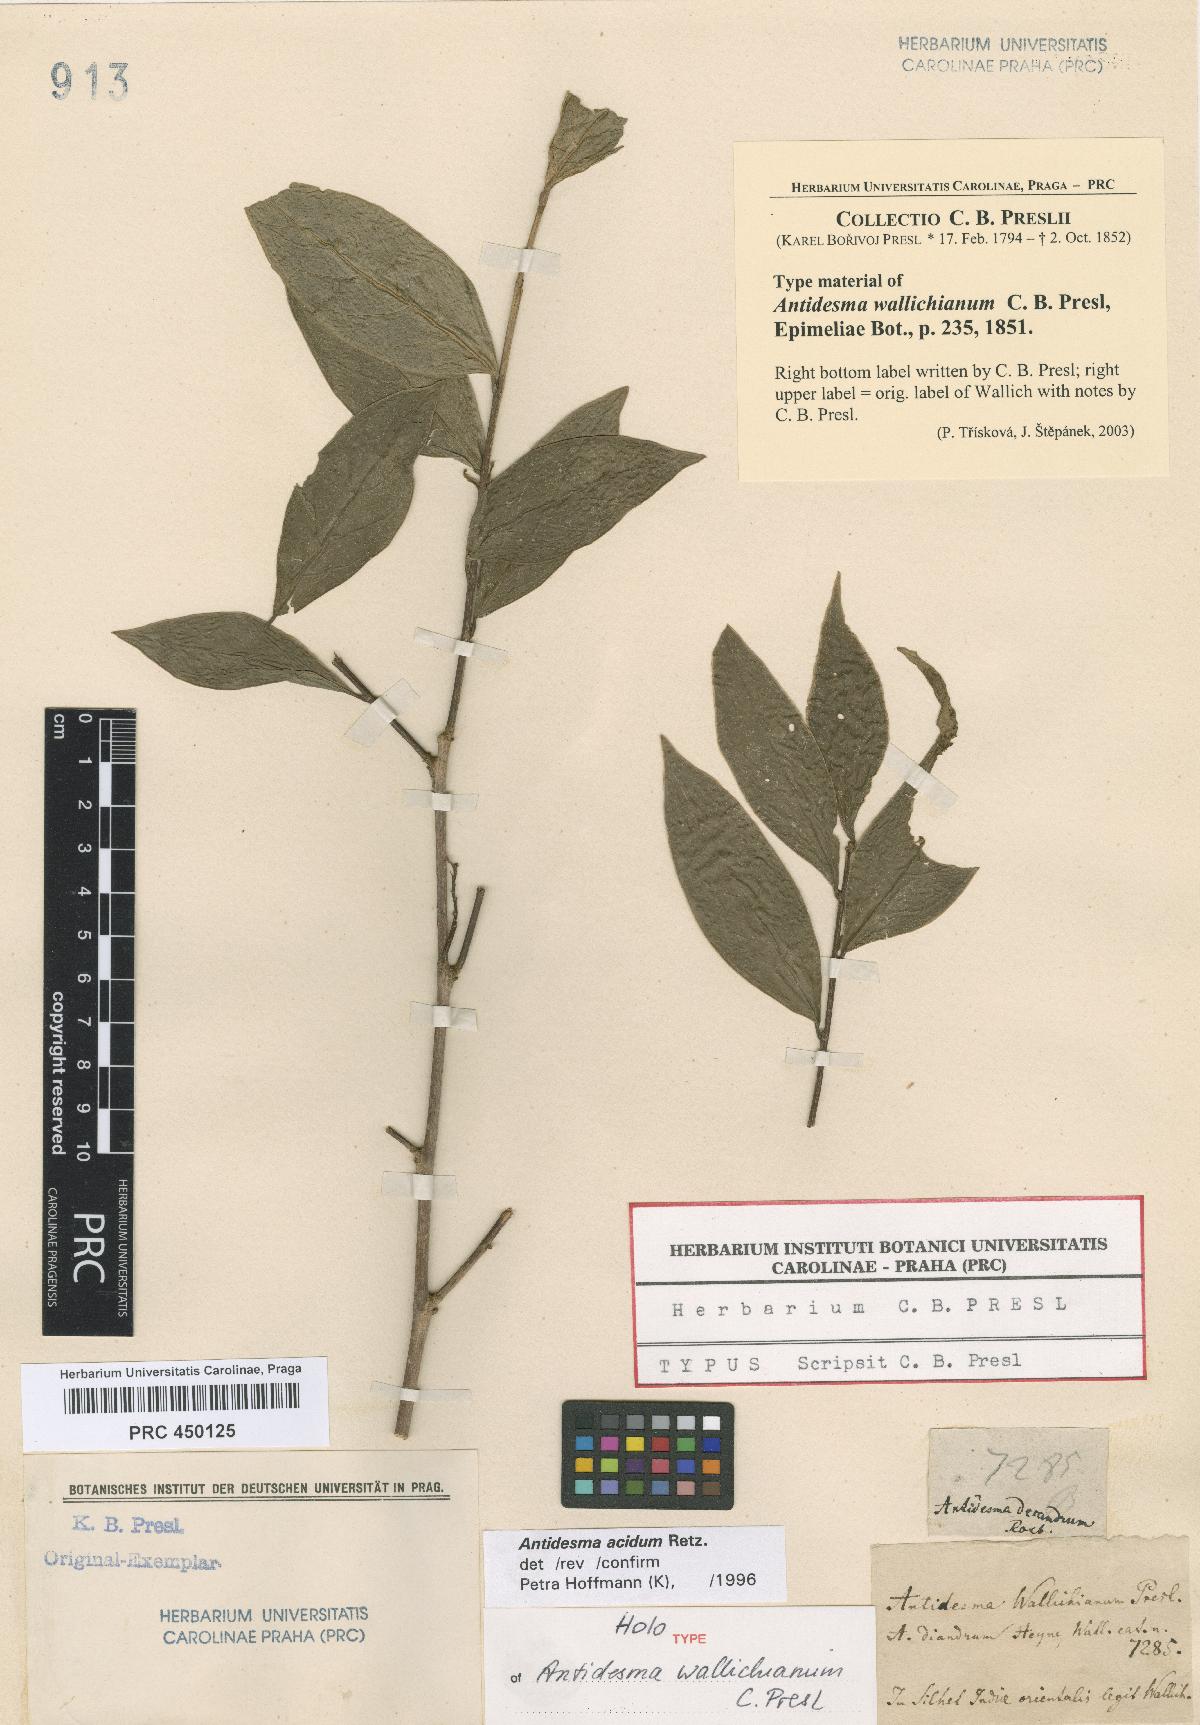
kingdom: Plantae
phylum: Tracheophyta
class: Magnoliopsida
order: Malpighiales
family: Phyllanthaceae
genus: Antidesma
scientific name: Antidesma acidum
